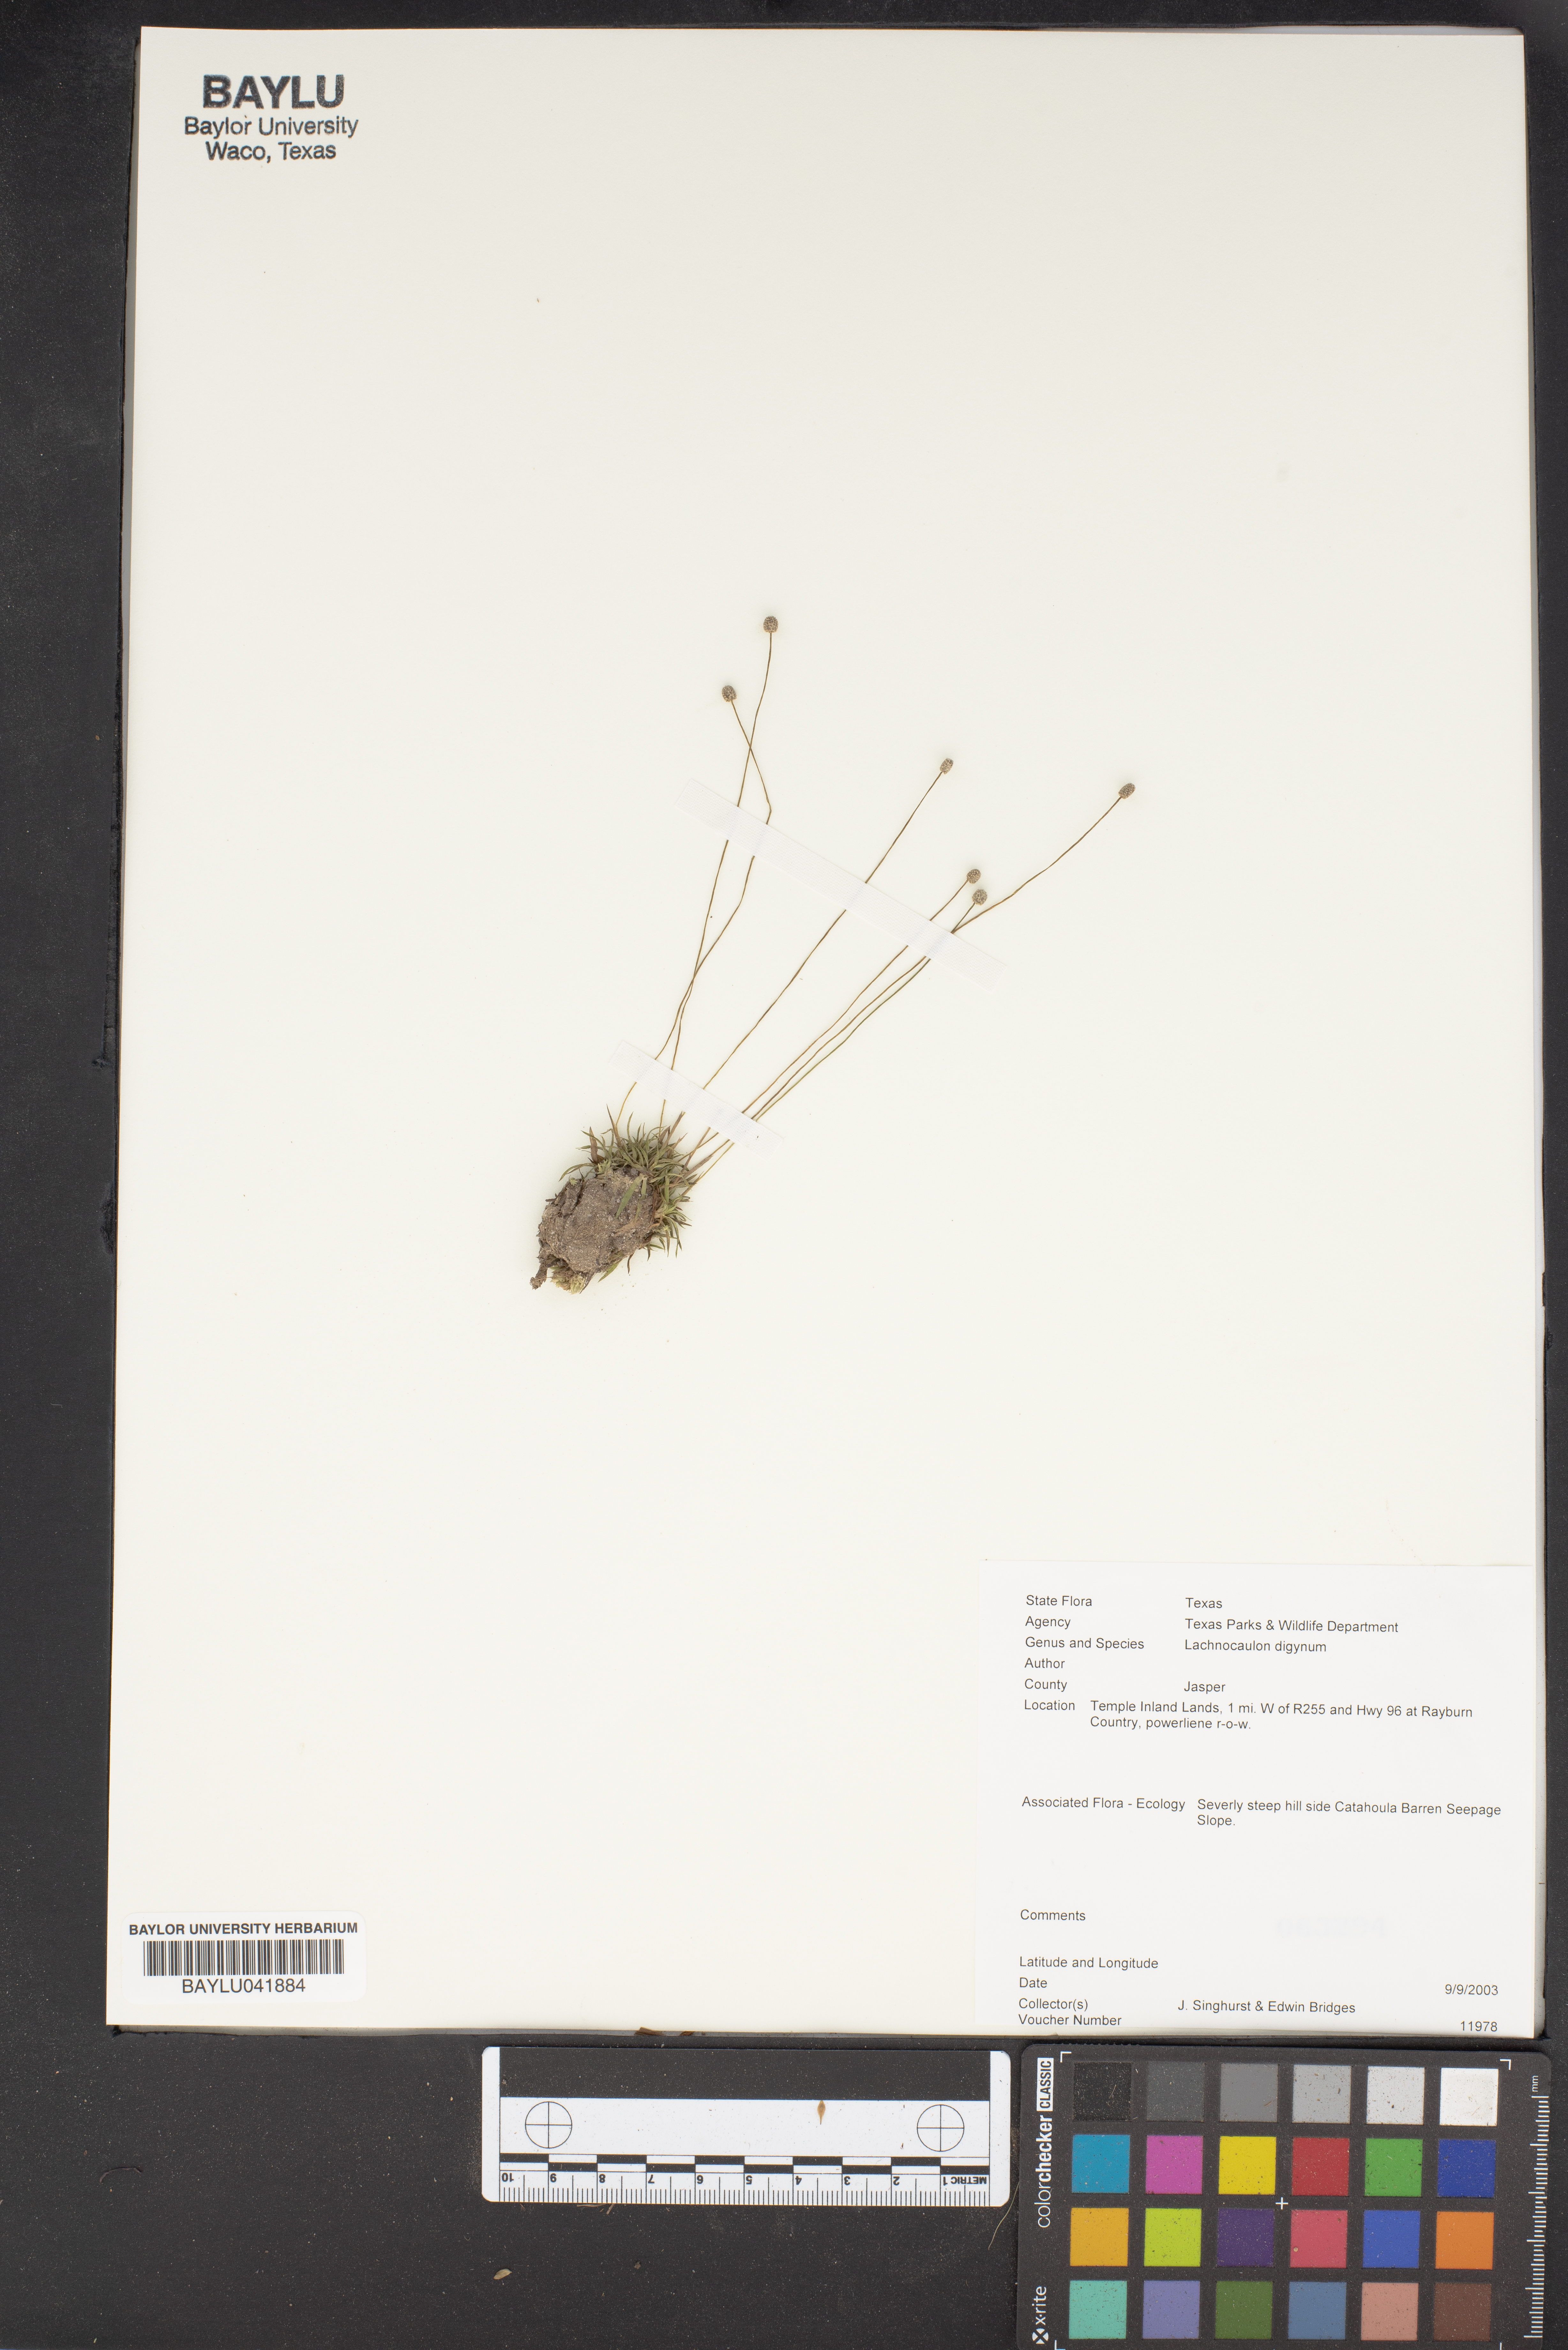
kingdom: Plantae
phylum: Tracheophyta
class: Liliopsida
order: Poales
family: Eriocaulaceae
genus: Paepalanthus
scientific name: Paepalanthus digynus
